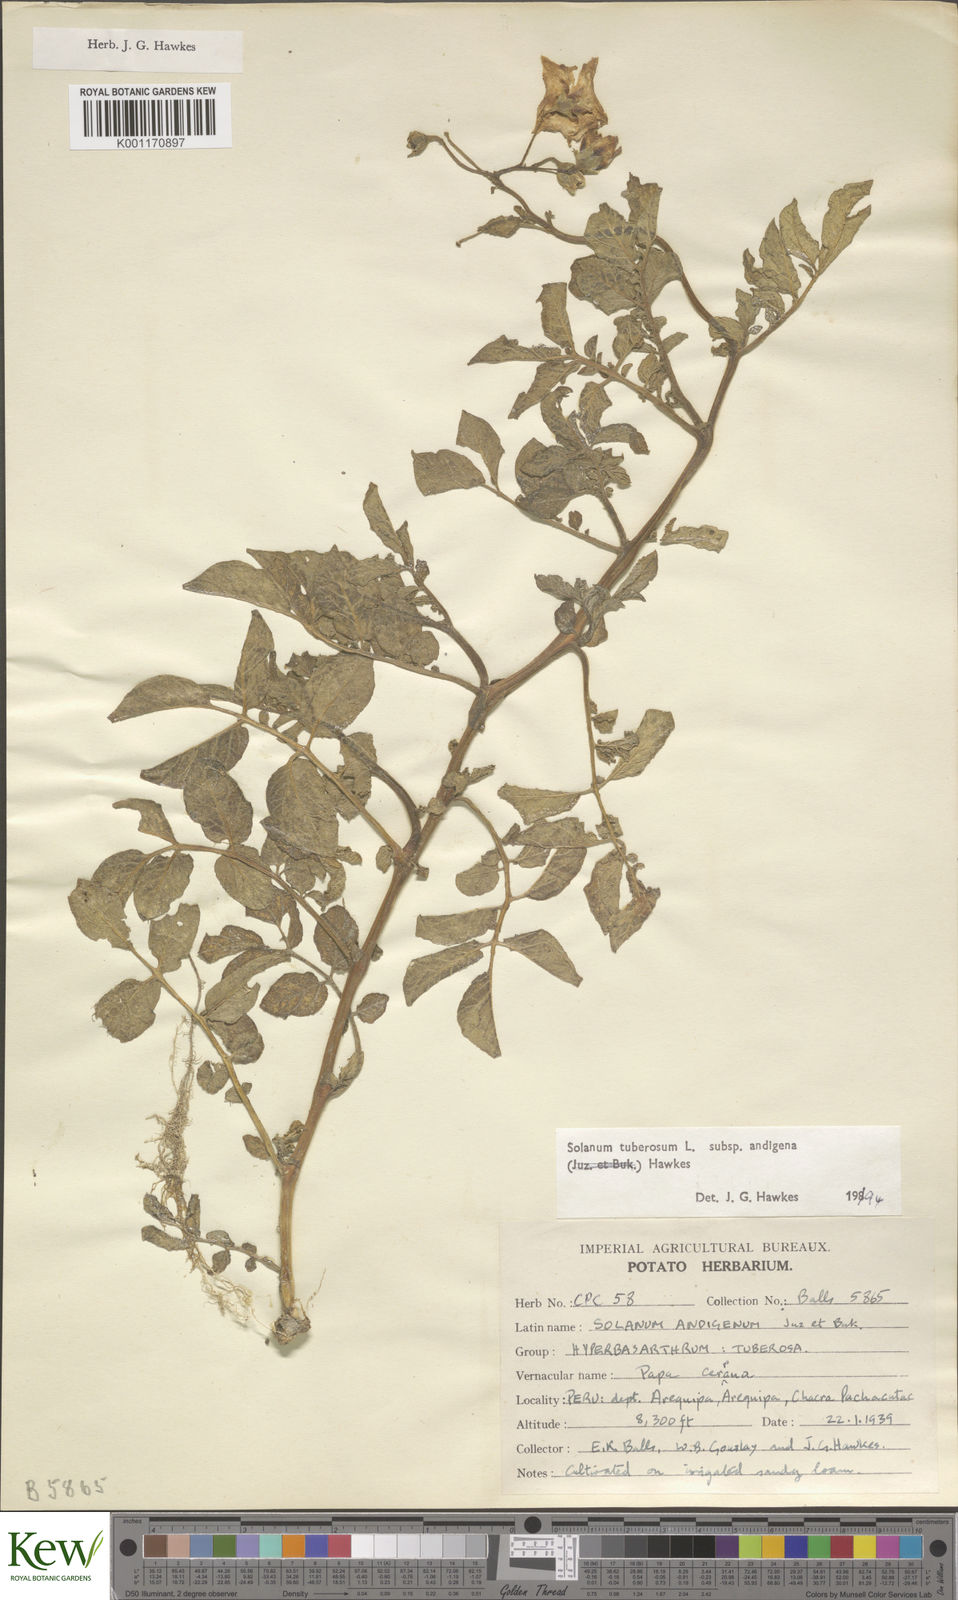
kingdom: Plantae
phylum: Tracheophyta
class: Magnoliopsida
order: Solanales
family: Solanaceae
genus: Solanum
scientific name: Solanum tuberosum
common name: Potato
